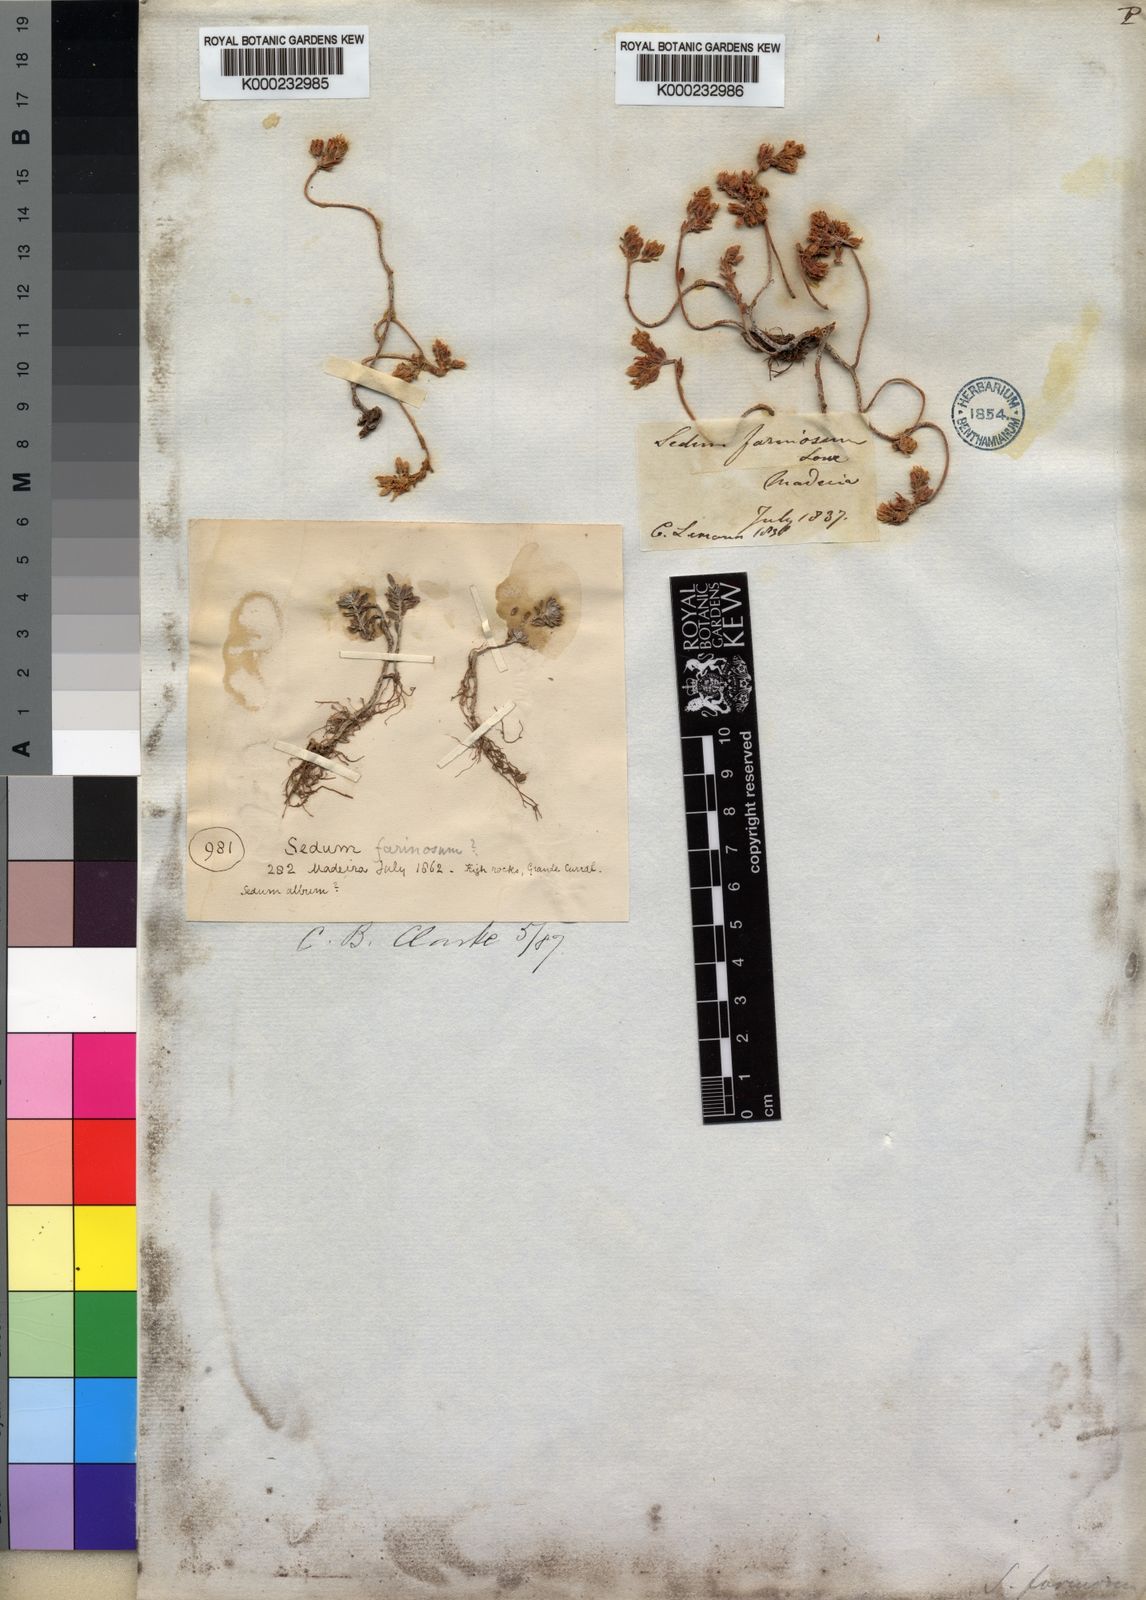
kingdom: Plantae
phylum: Tracheophyta
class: Magnoliopsida
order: Saxifragales
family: Crassulaceae
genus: Sedum
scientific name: Sedum farinosum
